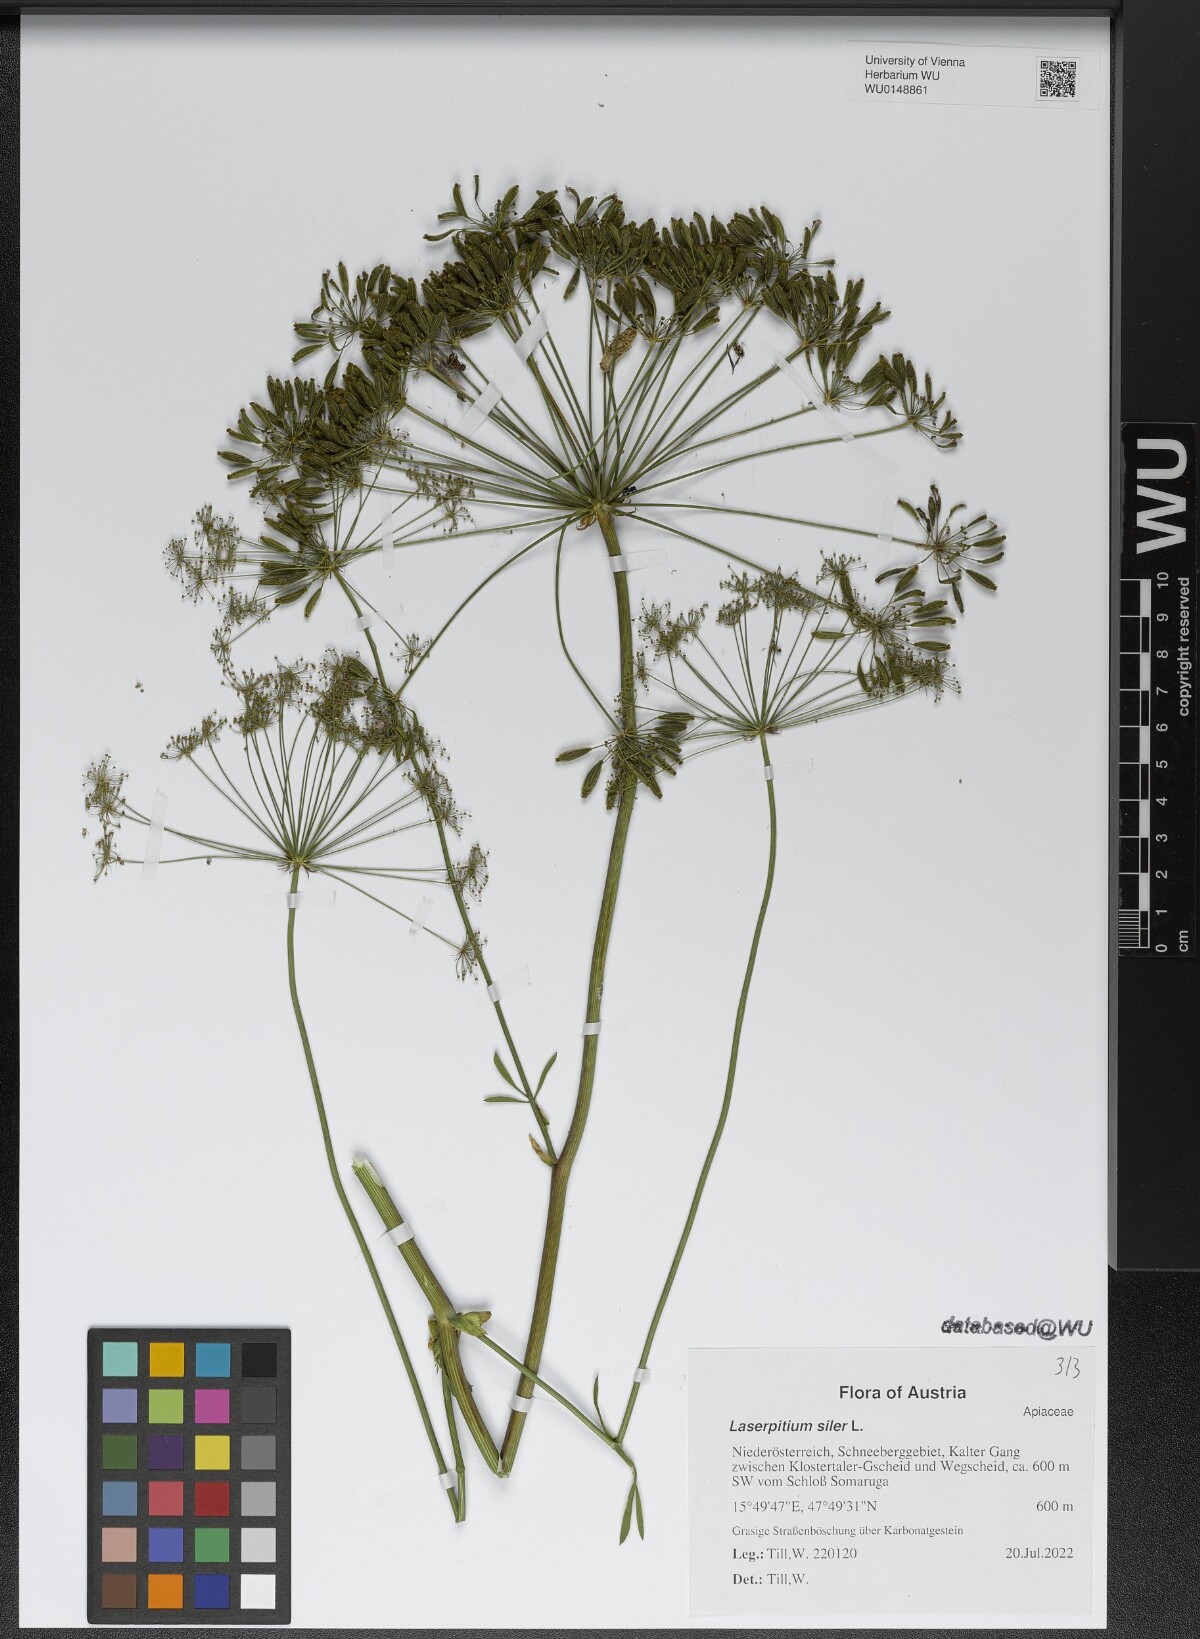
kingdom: Plantae
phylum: Tracheophyta
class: Magnoliopsida
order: Apiales
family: Apiaceae
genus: Siler
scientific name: Siler montanum
